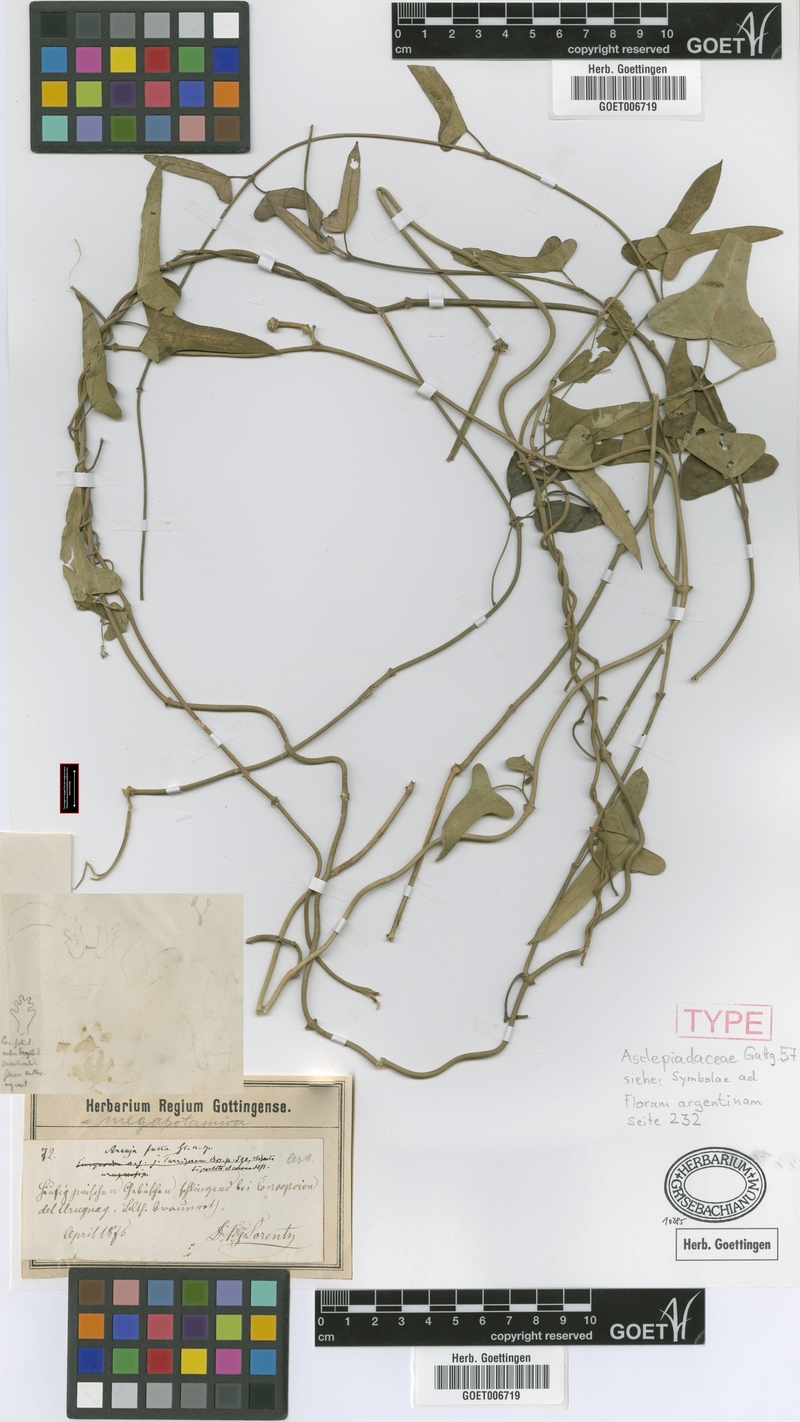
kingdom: Plantae
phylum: Tracheophyta
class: Magnoliopsida
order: Gentianales
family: Apocynaceae
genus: Araujia
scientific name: Araujia megapotamica
